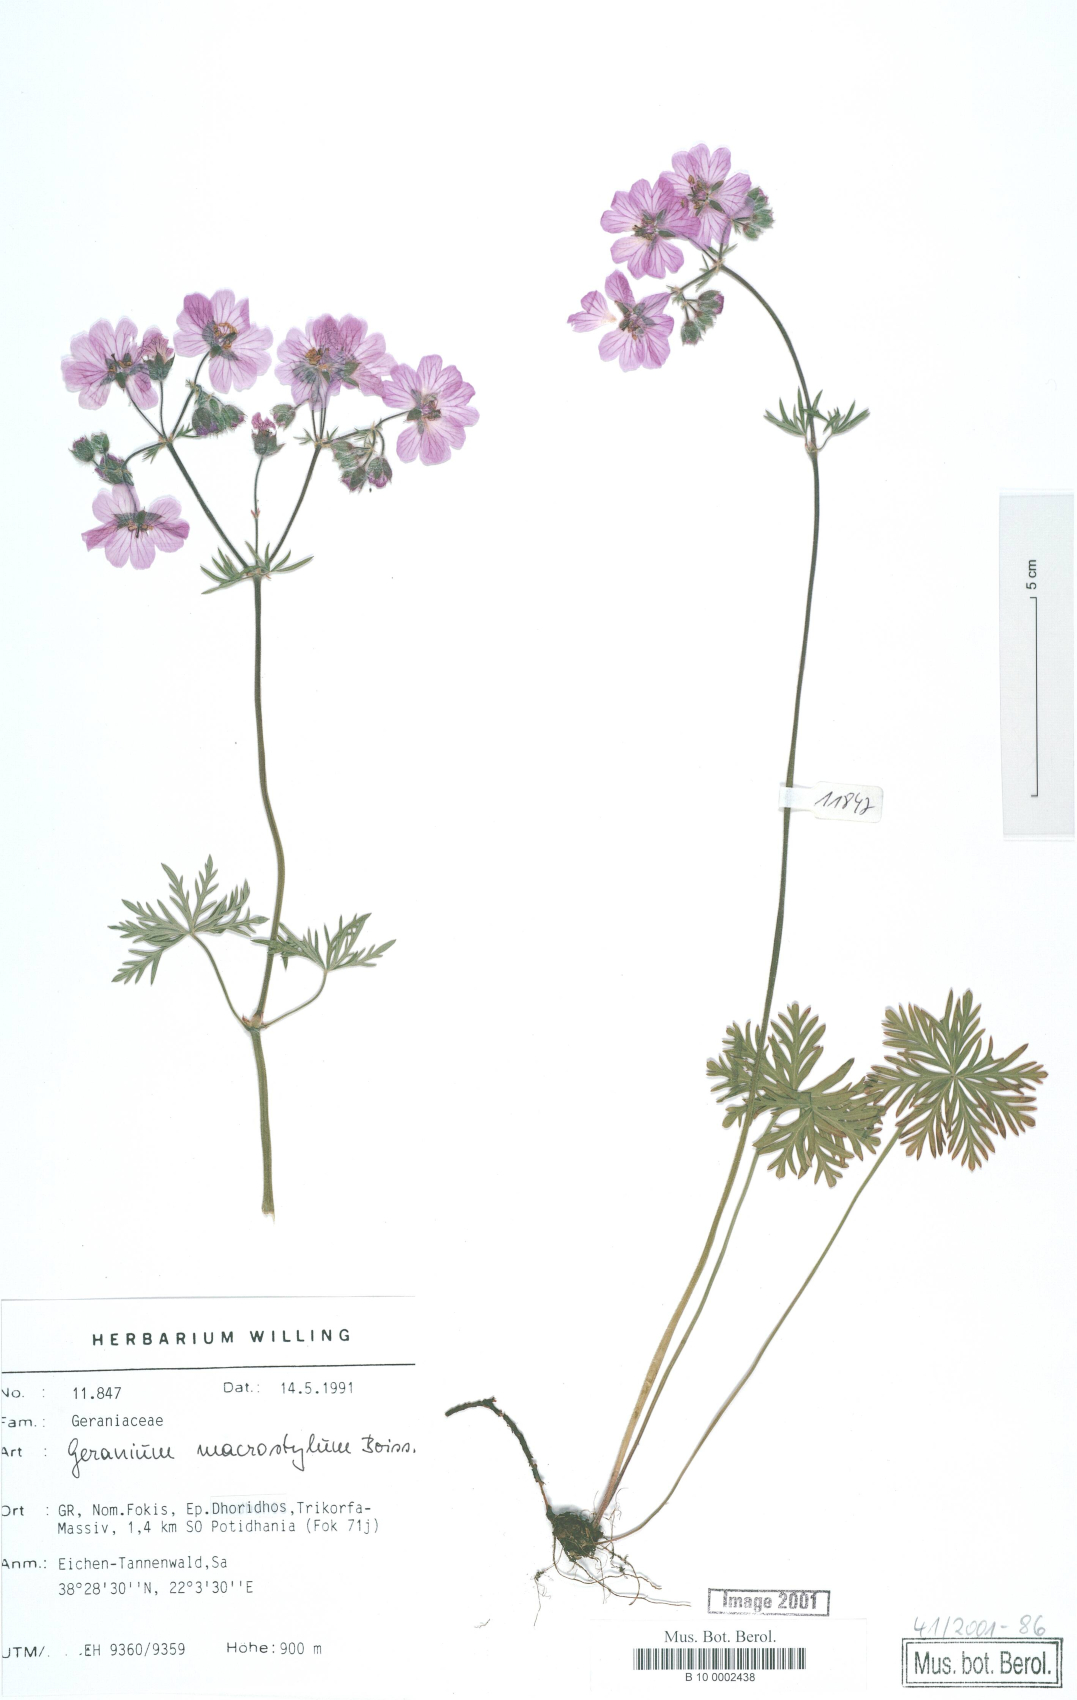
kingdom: Plantae
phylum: Tracheophyta
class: Magnoliopsida
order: Geraniales
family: Geraniaceae
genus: Geranium
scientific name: Geranium macrostylum
